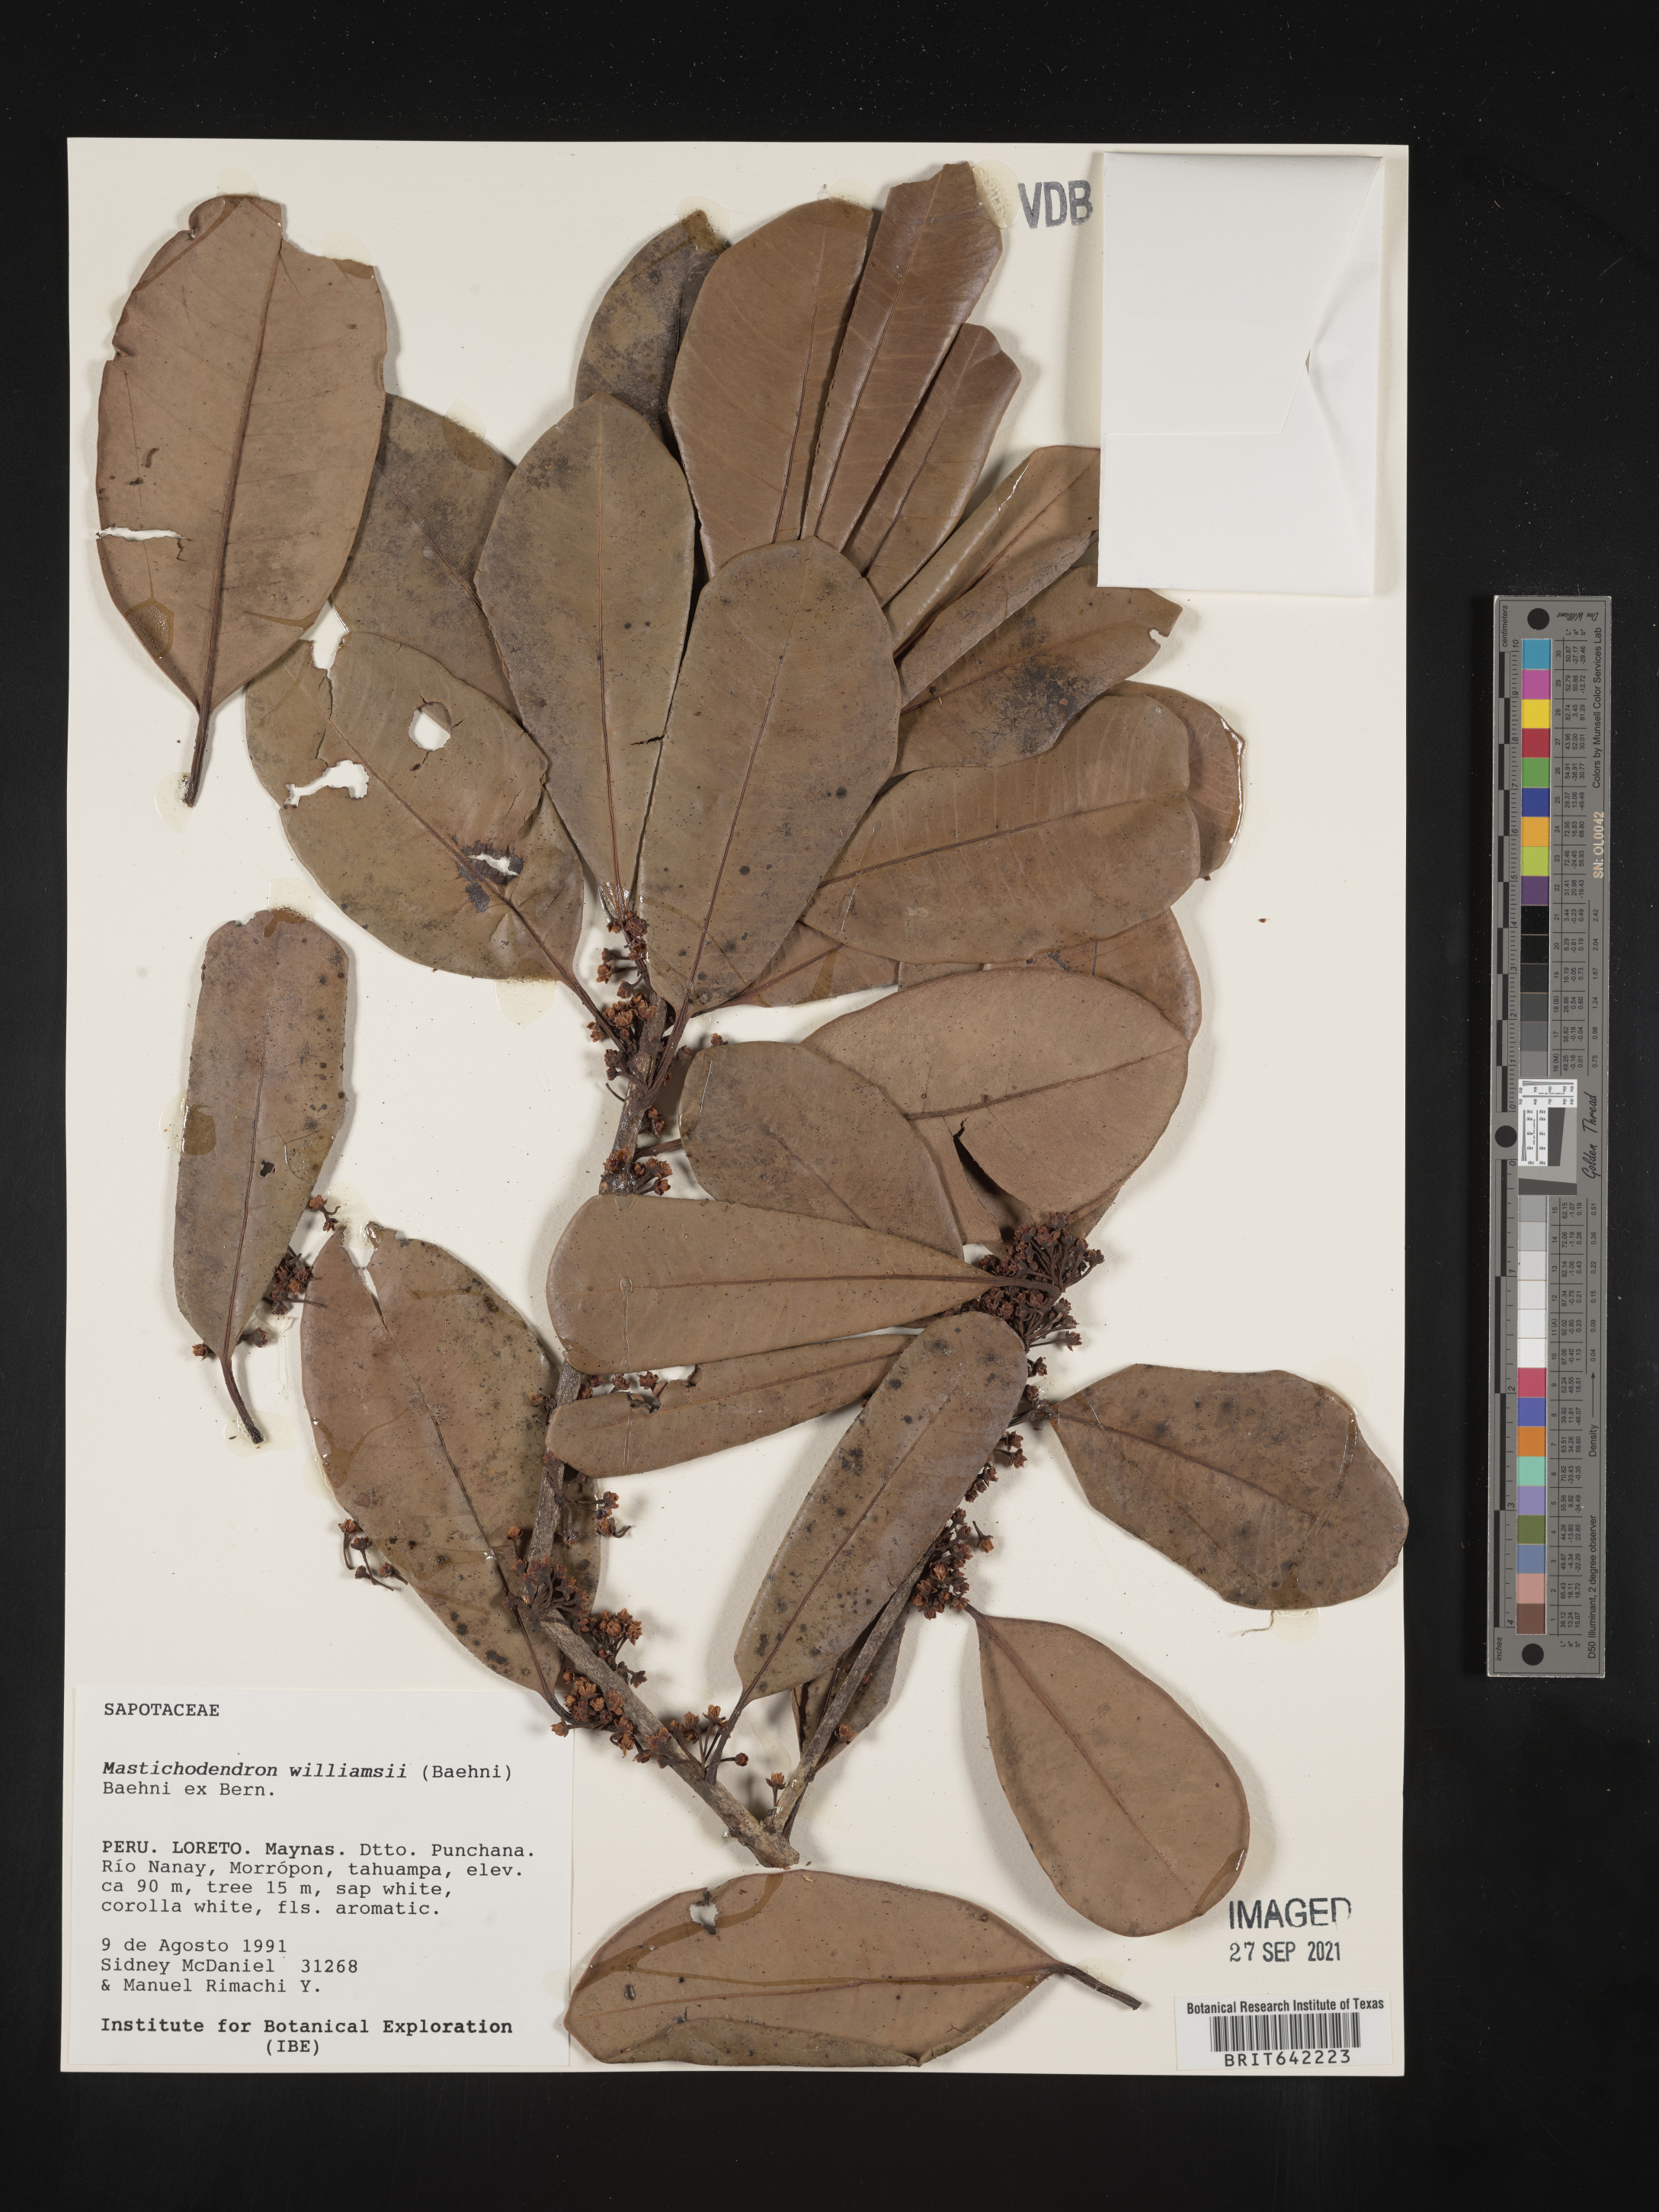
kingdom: Plantae
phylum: Tracheophyta
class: Magnoliopsida
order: Ericales
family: Sapotaceae
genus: Mastichodendron
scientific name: Mastichodendron
